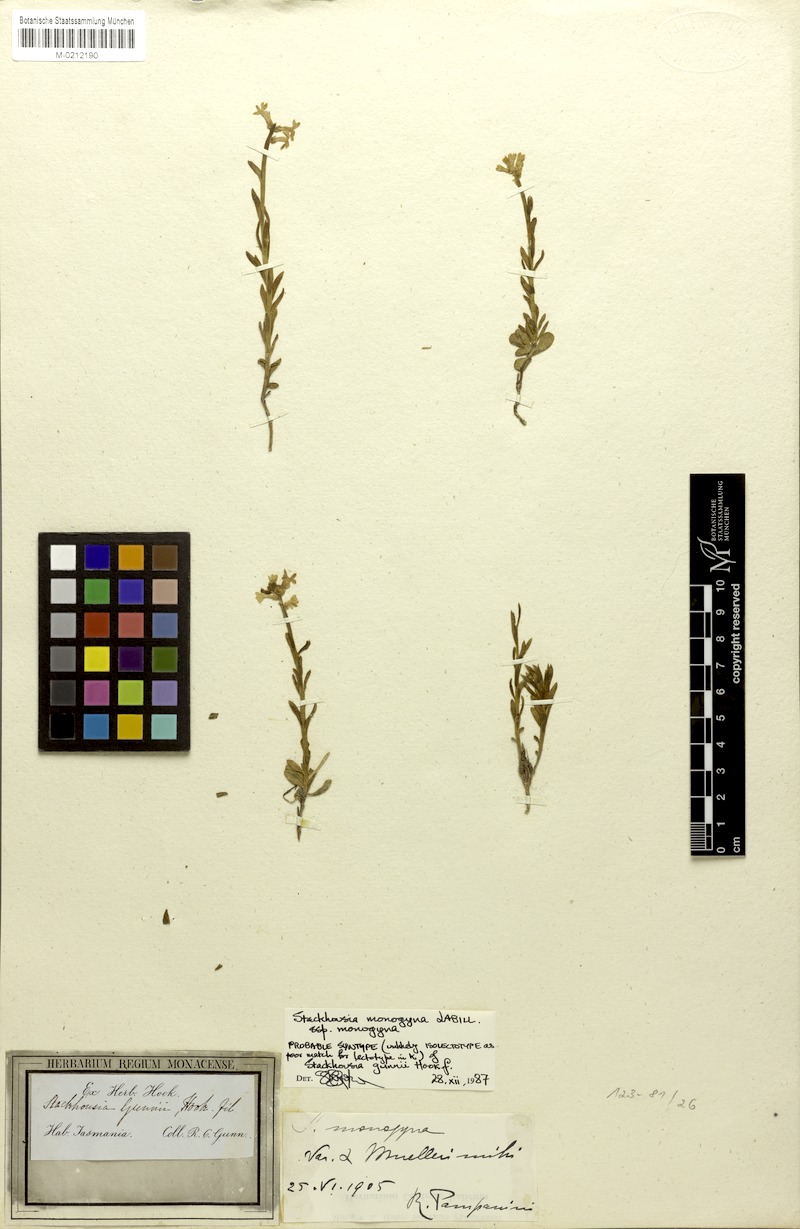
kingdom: Plantae
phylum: Tracheophyta
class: Magnoliopsida
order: Celastrales
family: Celastraceae
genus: Stackhousia
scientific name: Stackhousia monogyna
